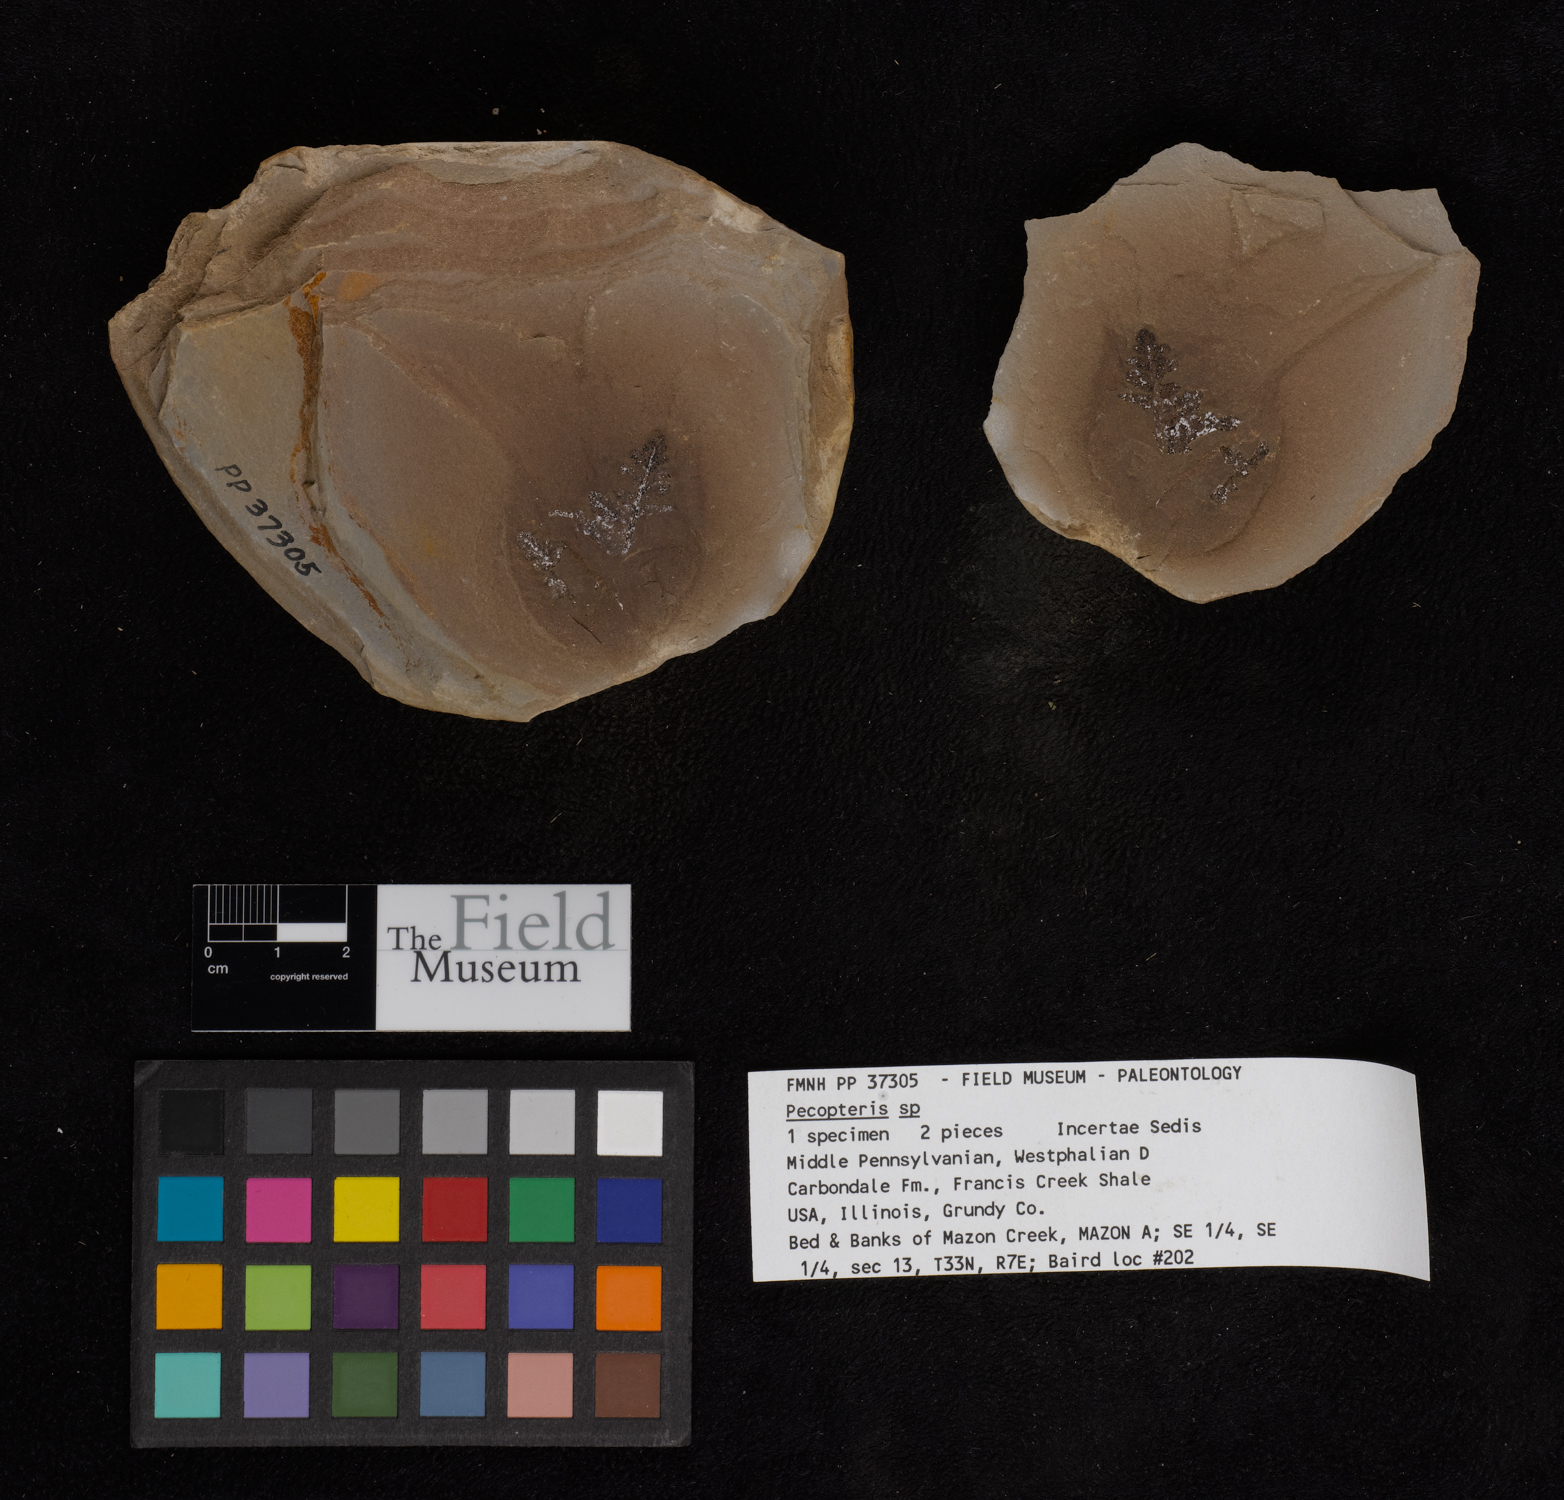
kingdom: Plantae
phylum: Tracheophyta
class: Polypodiopsida
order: Marattiales
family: Asterothecaceae
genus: Pecopteris
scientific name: Pecopteris
